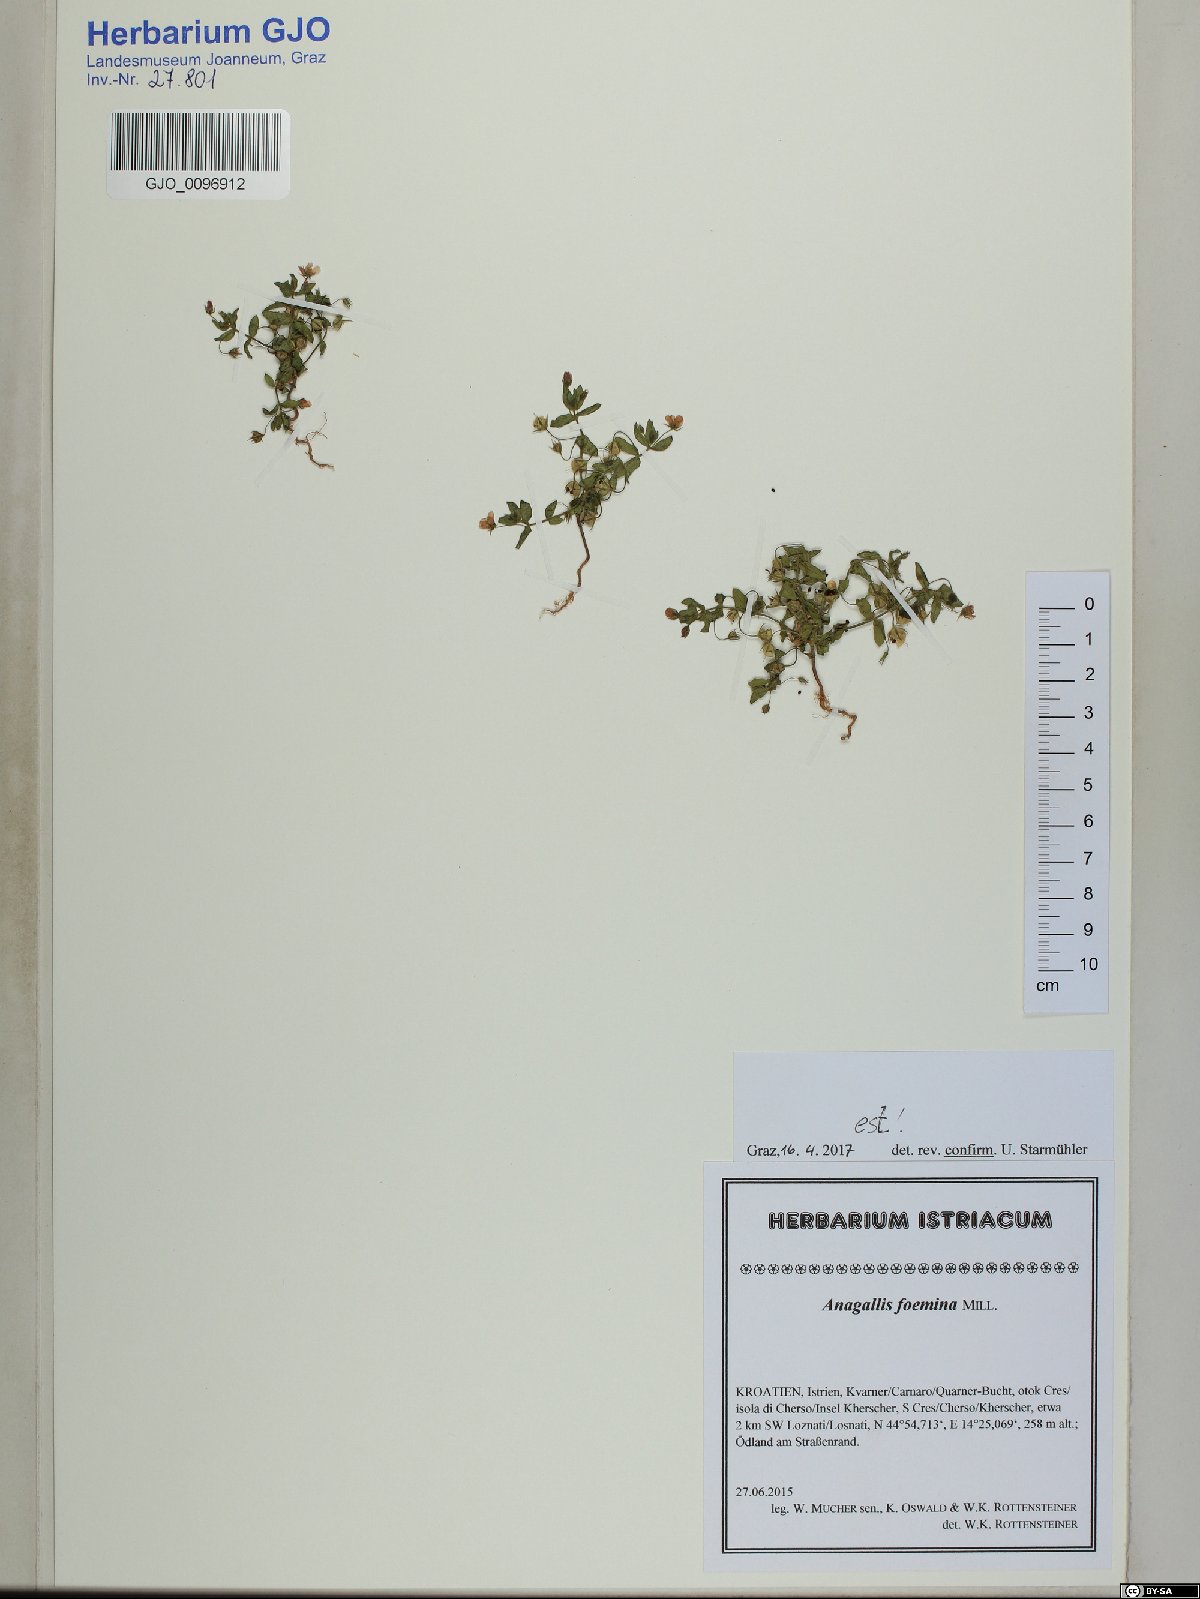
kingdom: Plantae
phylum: Tracheophyta
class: Magnoliopsida
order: Ericales
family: Primulaceae
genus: Lysimachia
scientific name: Lysimachia foemina
